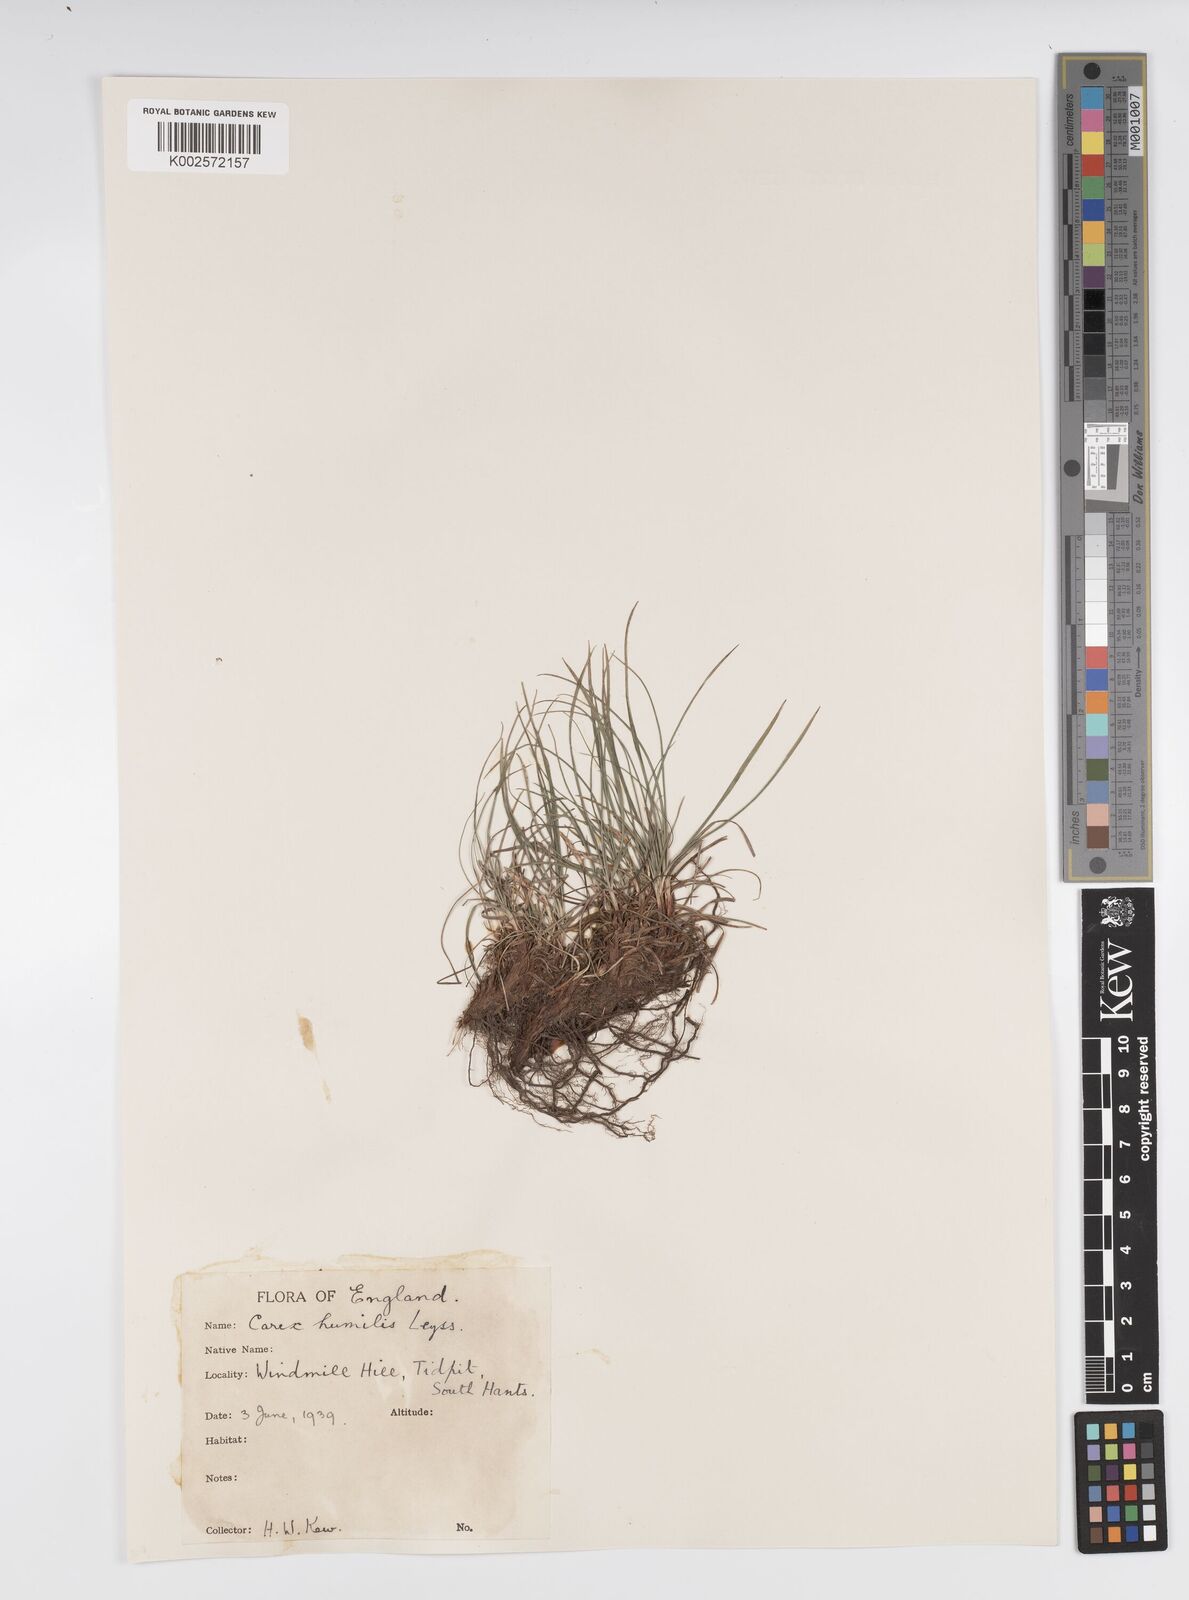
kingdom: Plantae
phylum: Tracheophyta
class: Liliopsida
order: Poales
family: Cyperaceae
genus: Carex
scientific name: Carex humilis
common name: Dwarf sedge
